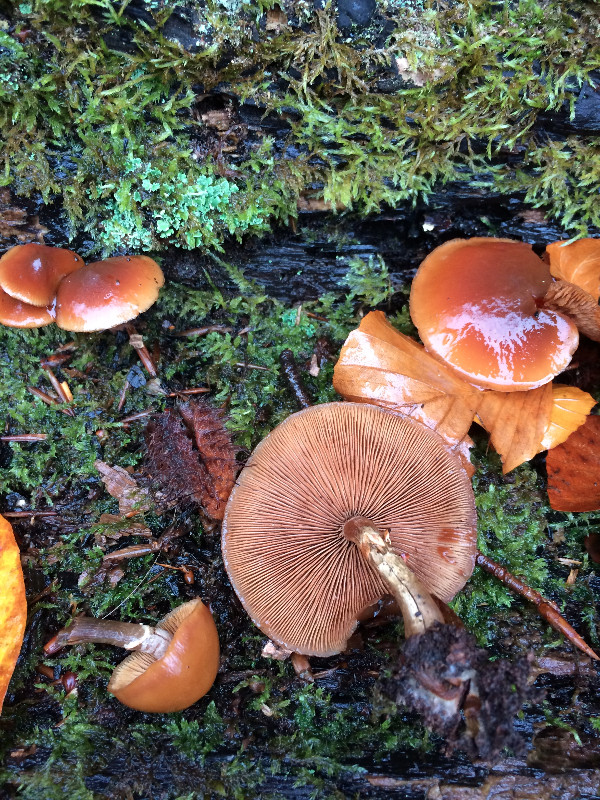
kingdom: Fungi
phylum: Basidiomycota
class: Agaricomycetes
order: Agaricales
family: Hymenogastraceae
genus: Galerina
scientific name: Galerina marginata
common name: randbæltet hjelmhat
